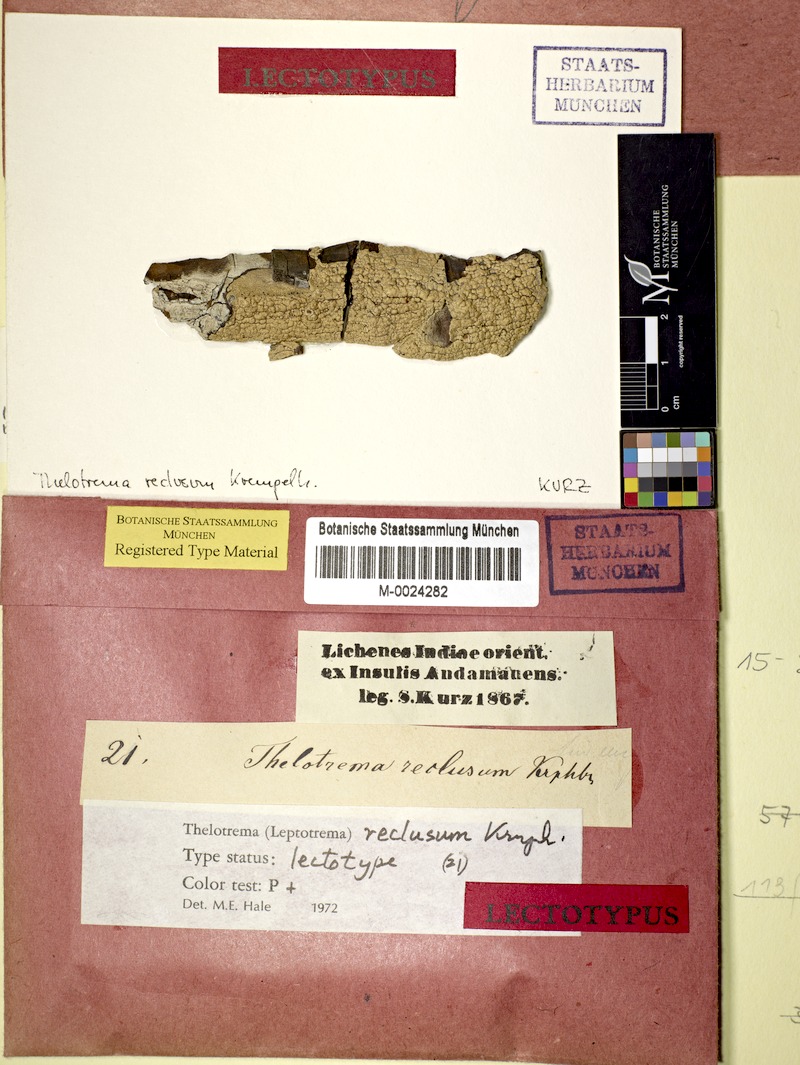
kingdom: Fungi
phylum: Ascomycota
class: Lecanoromycetes
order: Ostropales
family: Graphidaceae
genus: Leucodecton
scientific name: Leucodecton compunctellum
